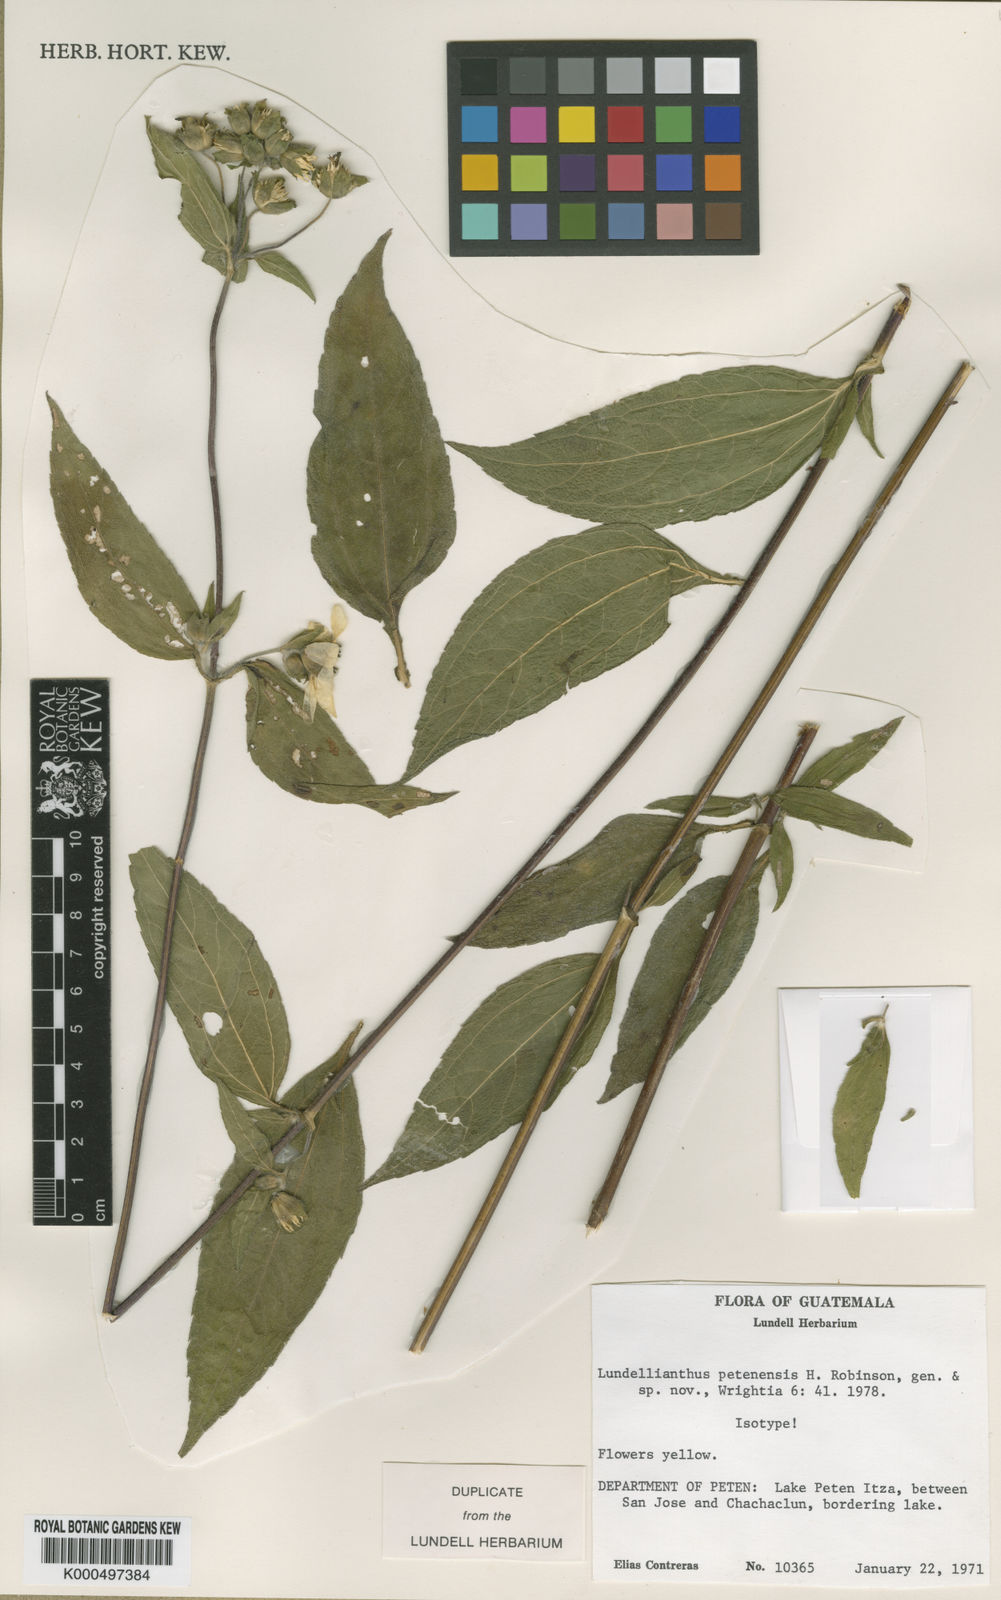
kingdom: Plantae
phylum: Tracheophyta
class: Magnoliopsida
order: Asterales
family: Asteraceae
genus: Lundellianthus
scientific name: Lundellianthus guatemalensis
